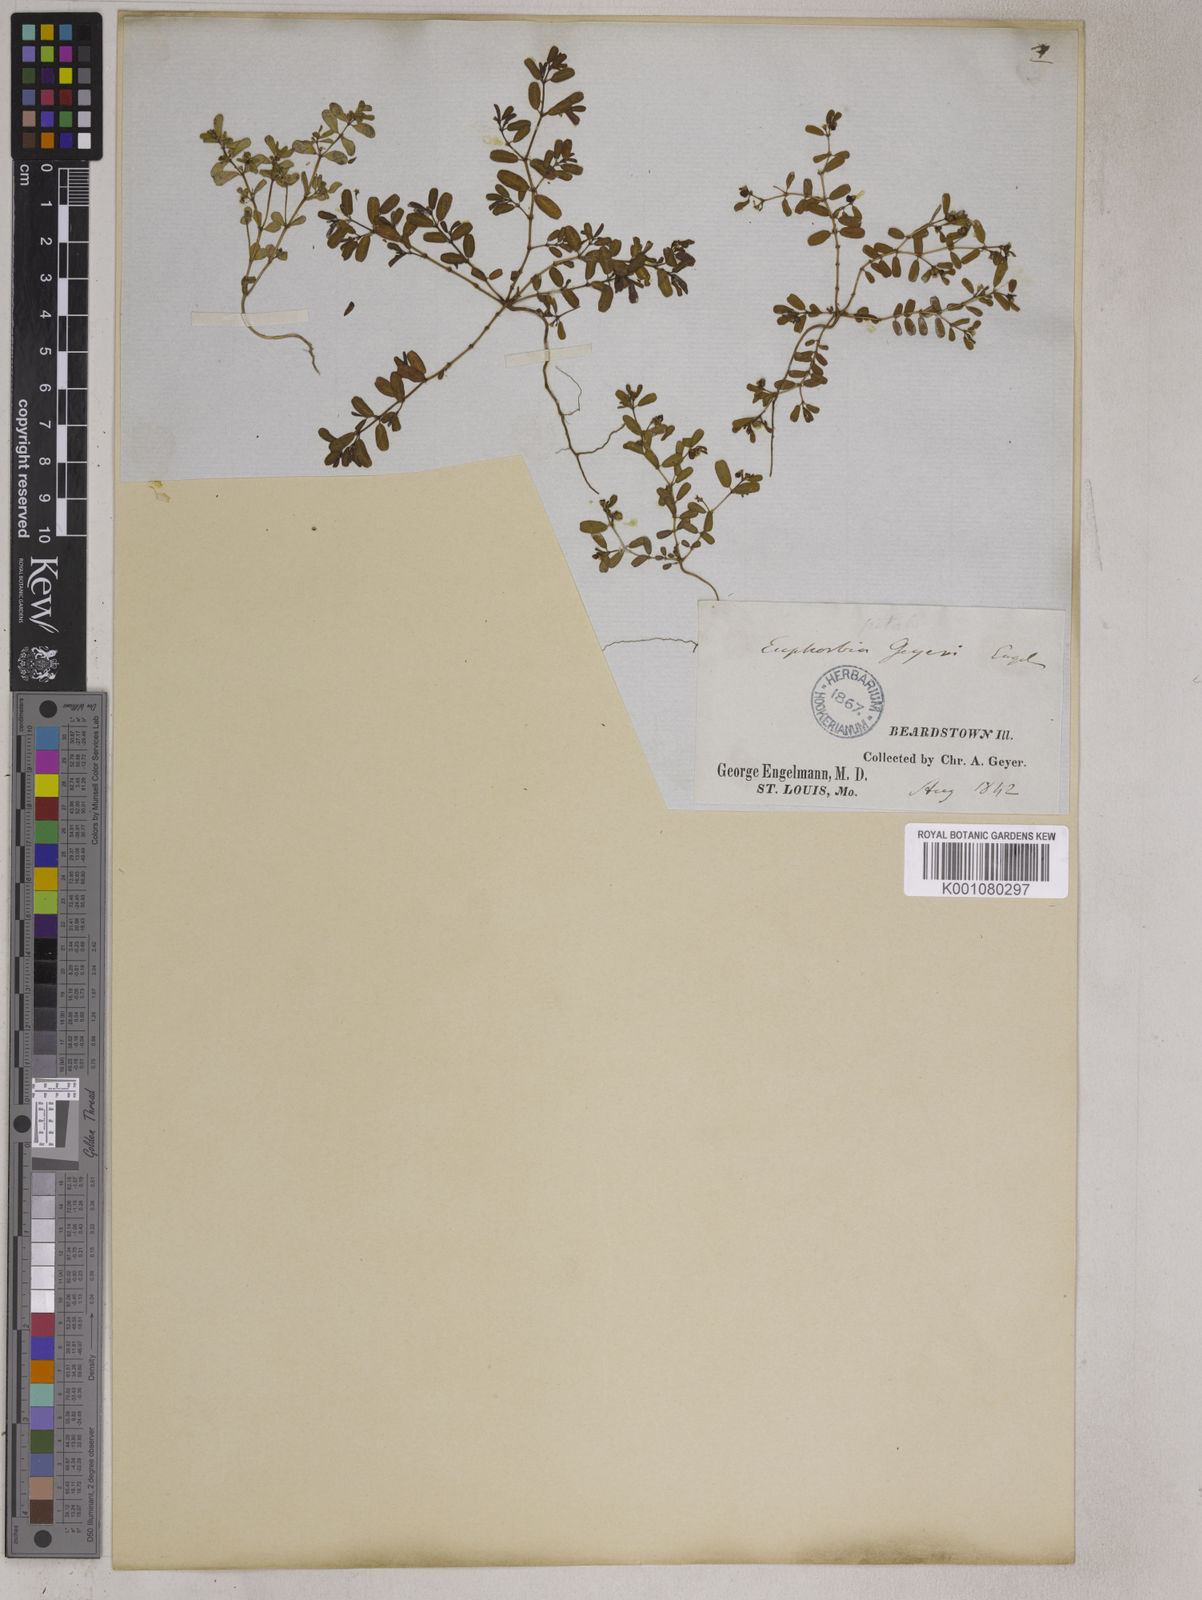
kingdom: Plantae
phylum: Tracheophyta
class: Magnoliopsida
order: Malpighiales
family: Euphorbiaceae
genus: Euphorbia
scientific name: Euphorbia geyeri
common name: Geyer's spurge
